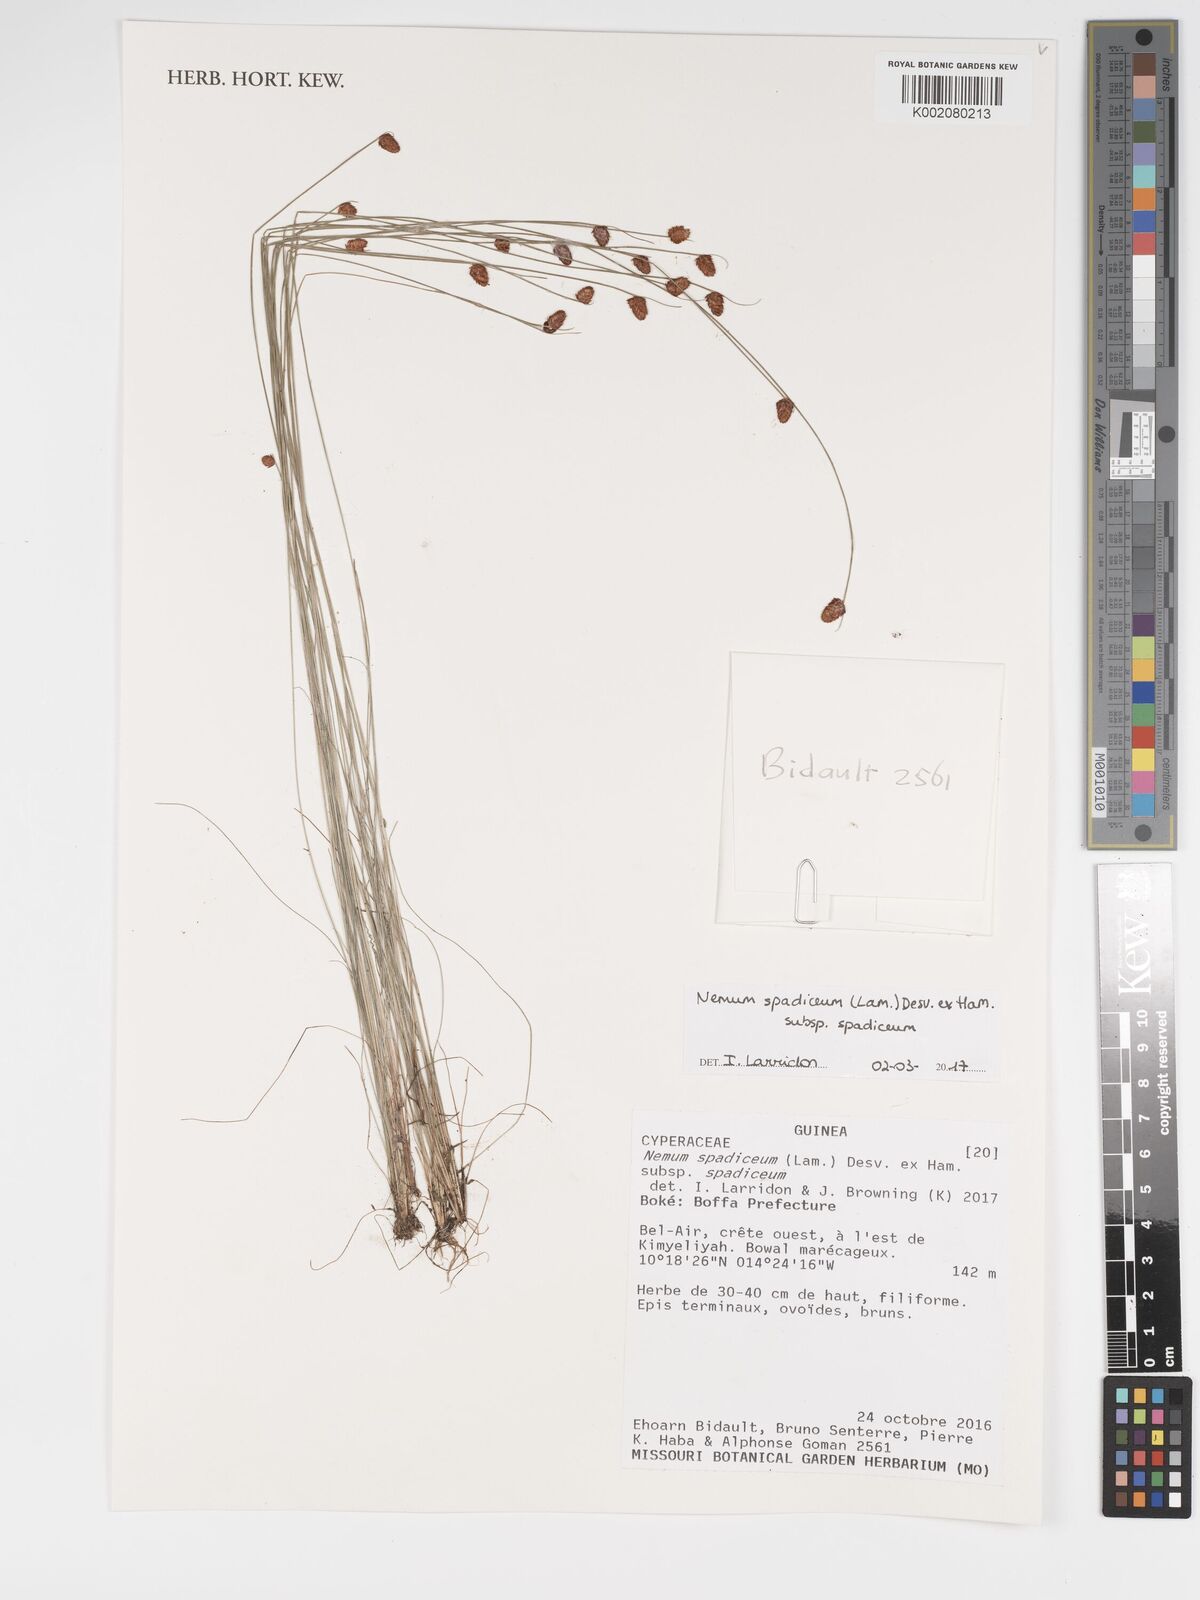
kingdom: Plantae
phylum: Tracheophyta
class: Liliopsida
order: Poales
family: Cyperaceae
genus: Bulbostylis
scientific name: Bulbostylis briziformis
